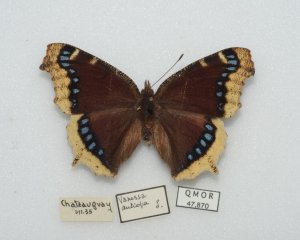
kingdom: Animalia
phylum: Arthropoda
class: Insecta
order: Lepidoptera
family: Nymphalidae
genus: Nymphalis
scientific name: Nymphalis antiopa
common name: Mourning Cloak
